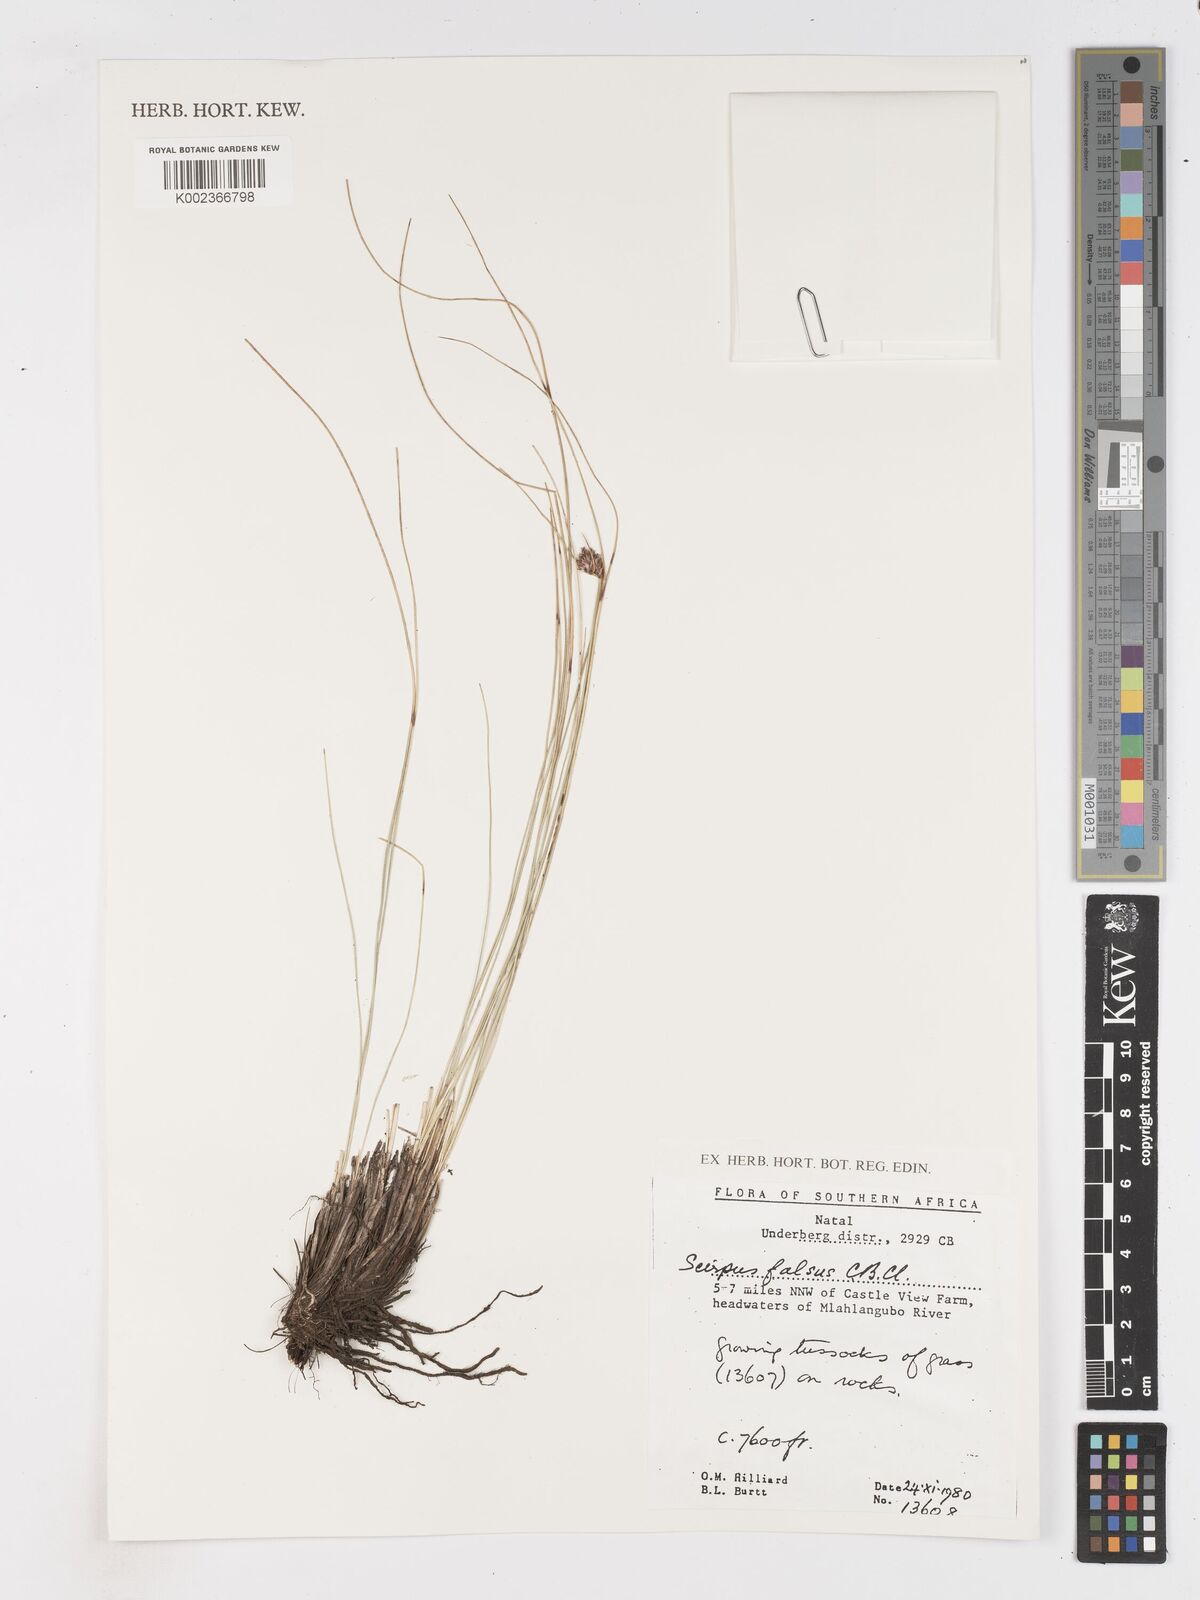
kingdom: Plantae
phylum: Tracheophyta
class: Liliopsida
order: Poales
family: Cyperaceae
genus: Dracoscirpoides
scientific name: Dracoscirpoides falsa
